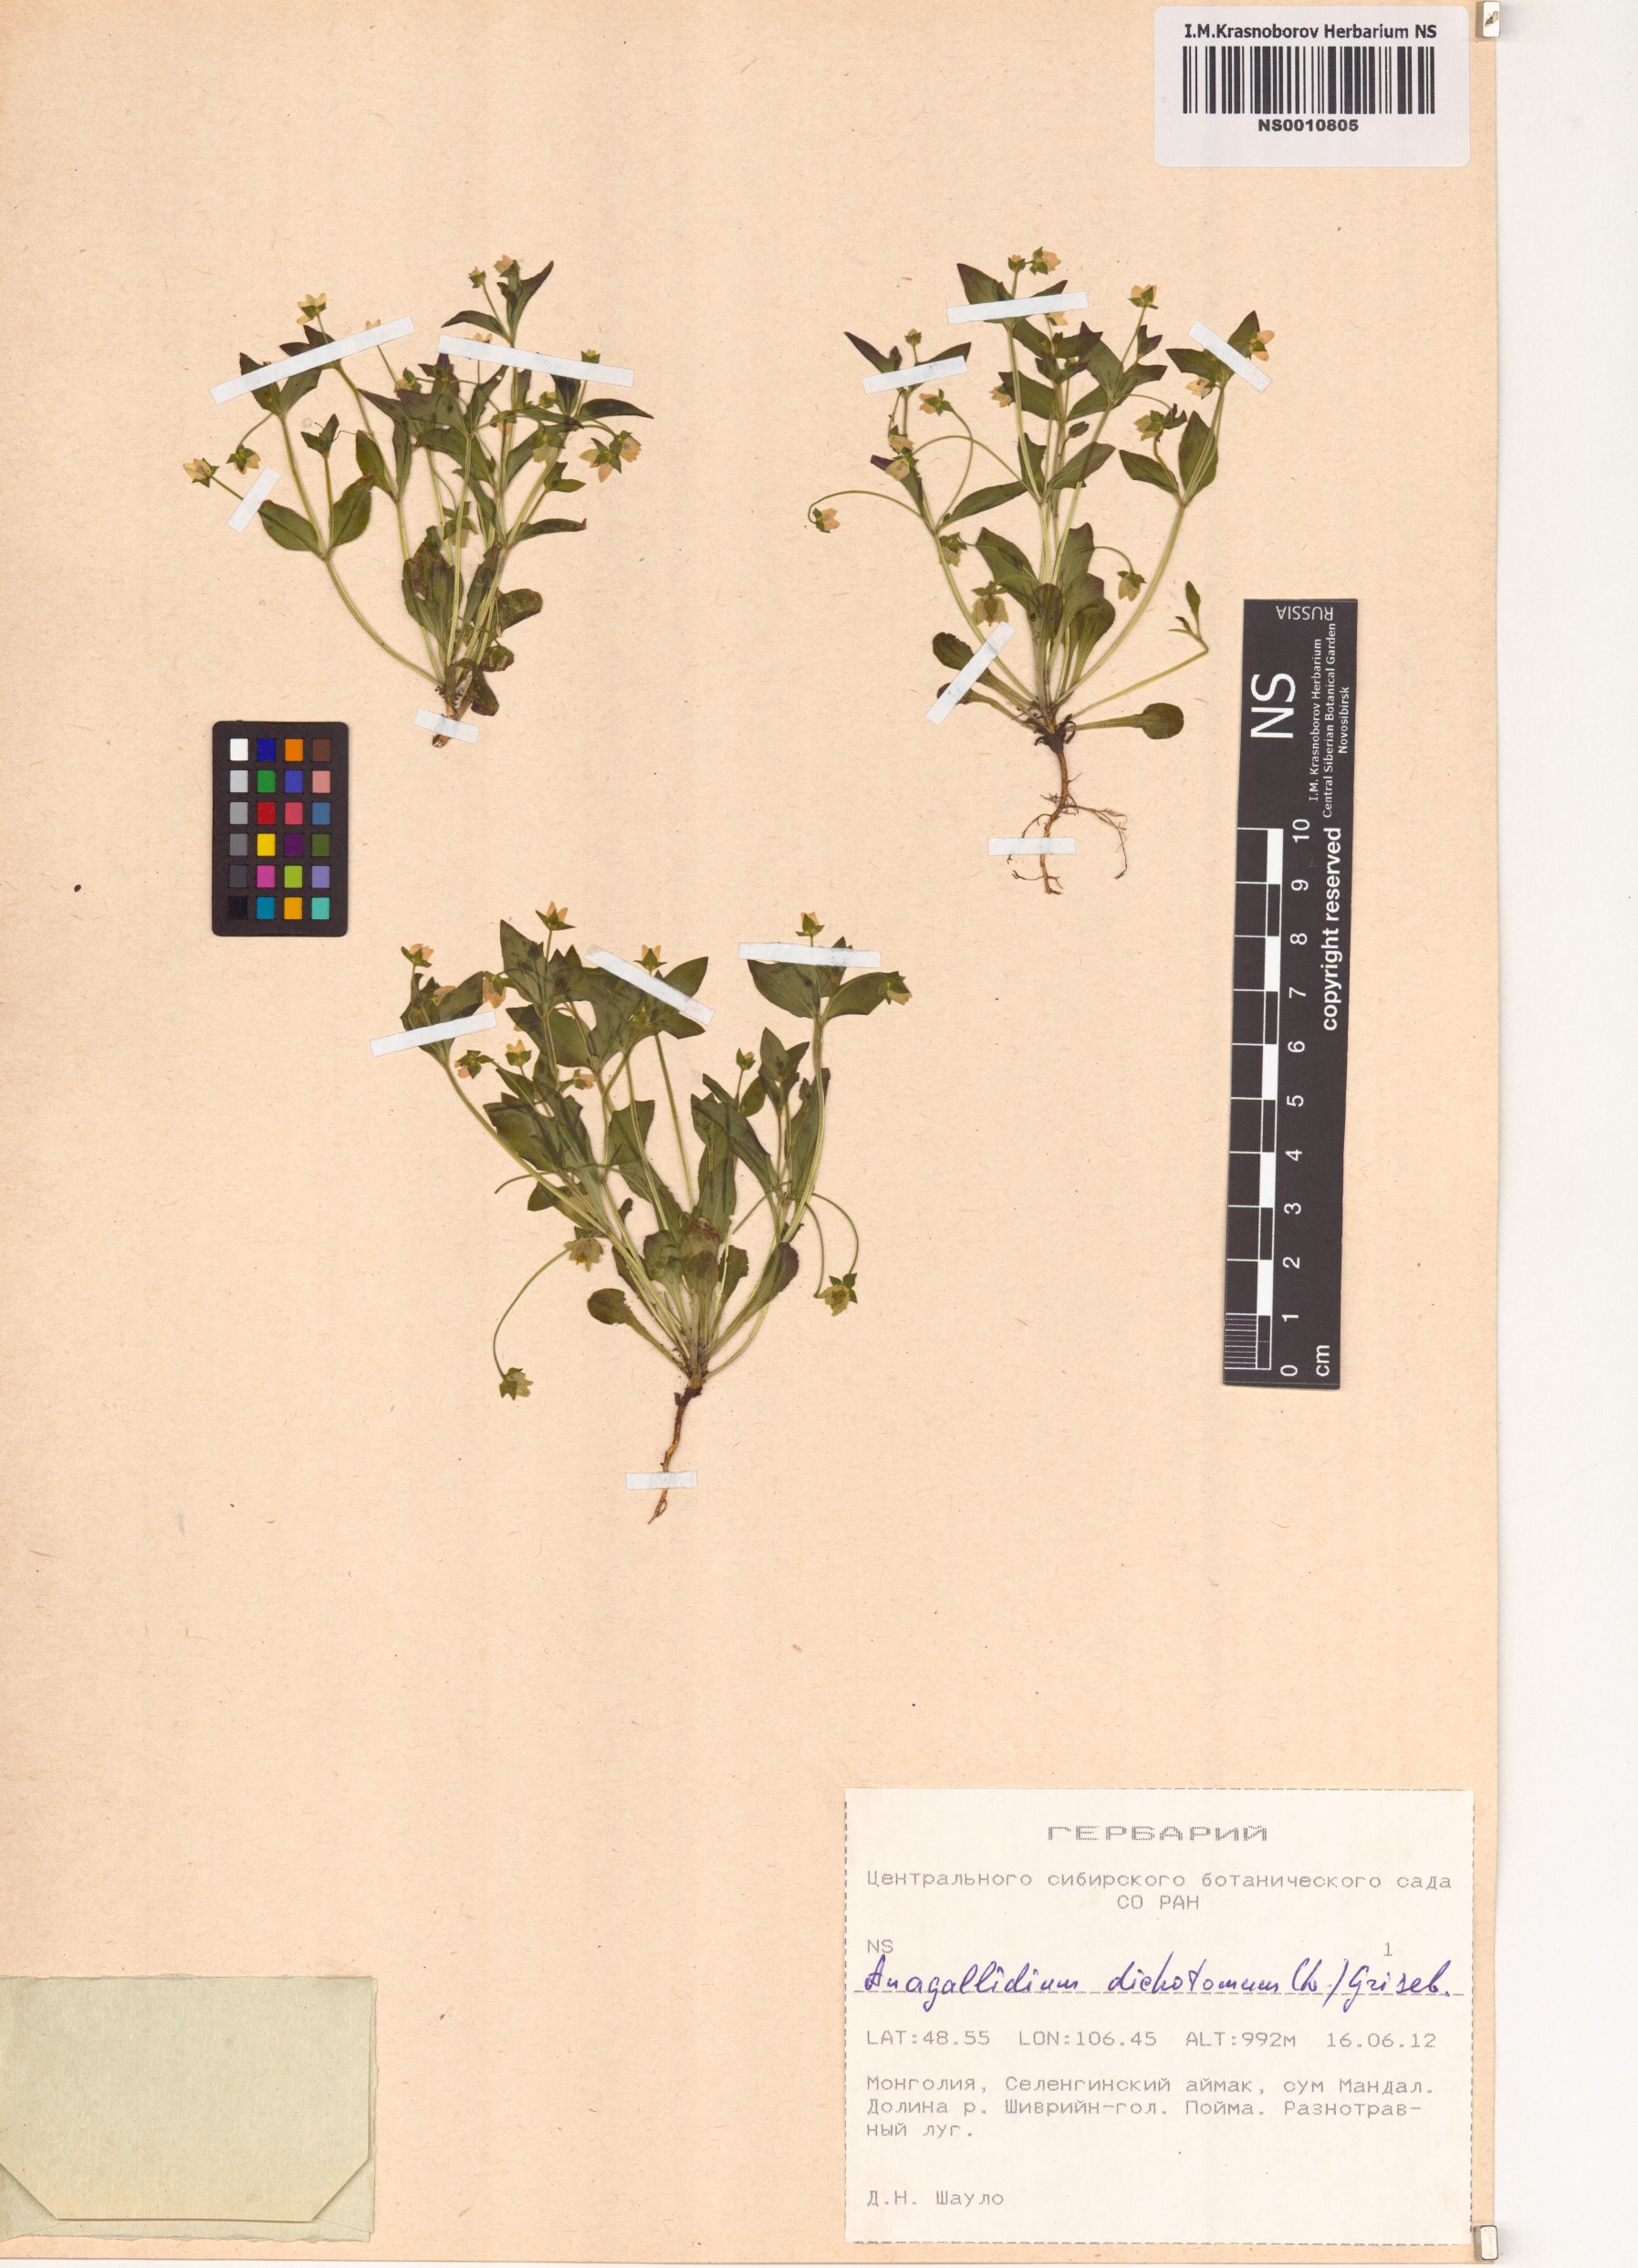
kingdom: Plantae
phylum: Tracheophyta
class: Magnoliopsida
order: Gentianales
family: Gentianaceae
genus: Swertia
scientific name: Swertia dichotoma
